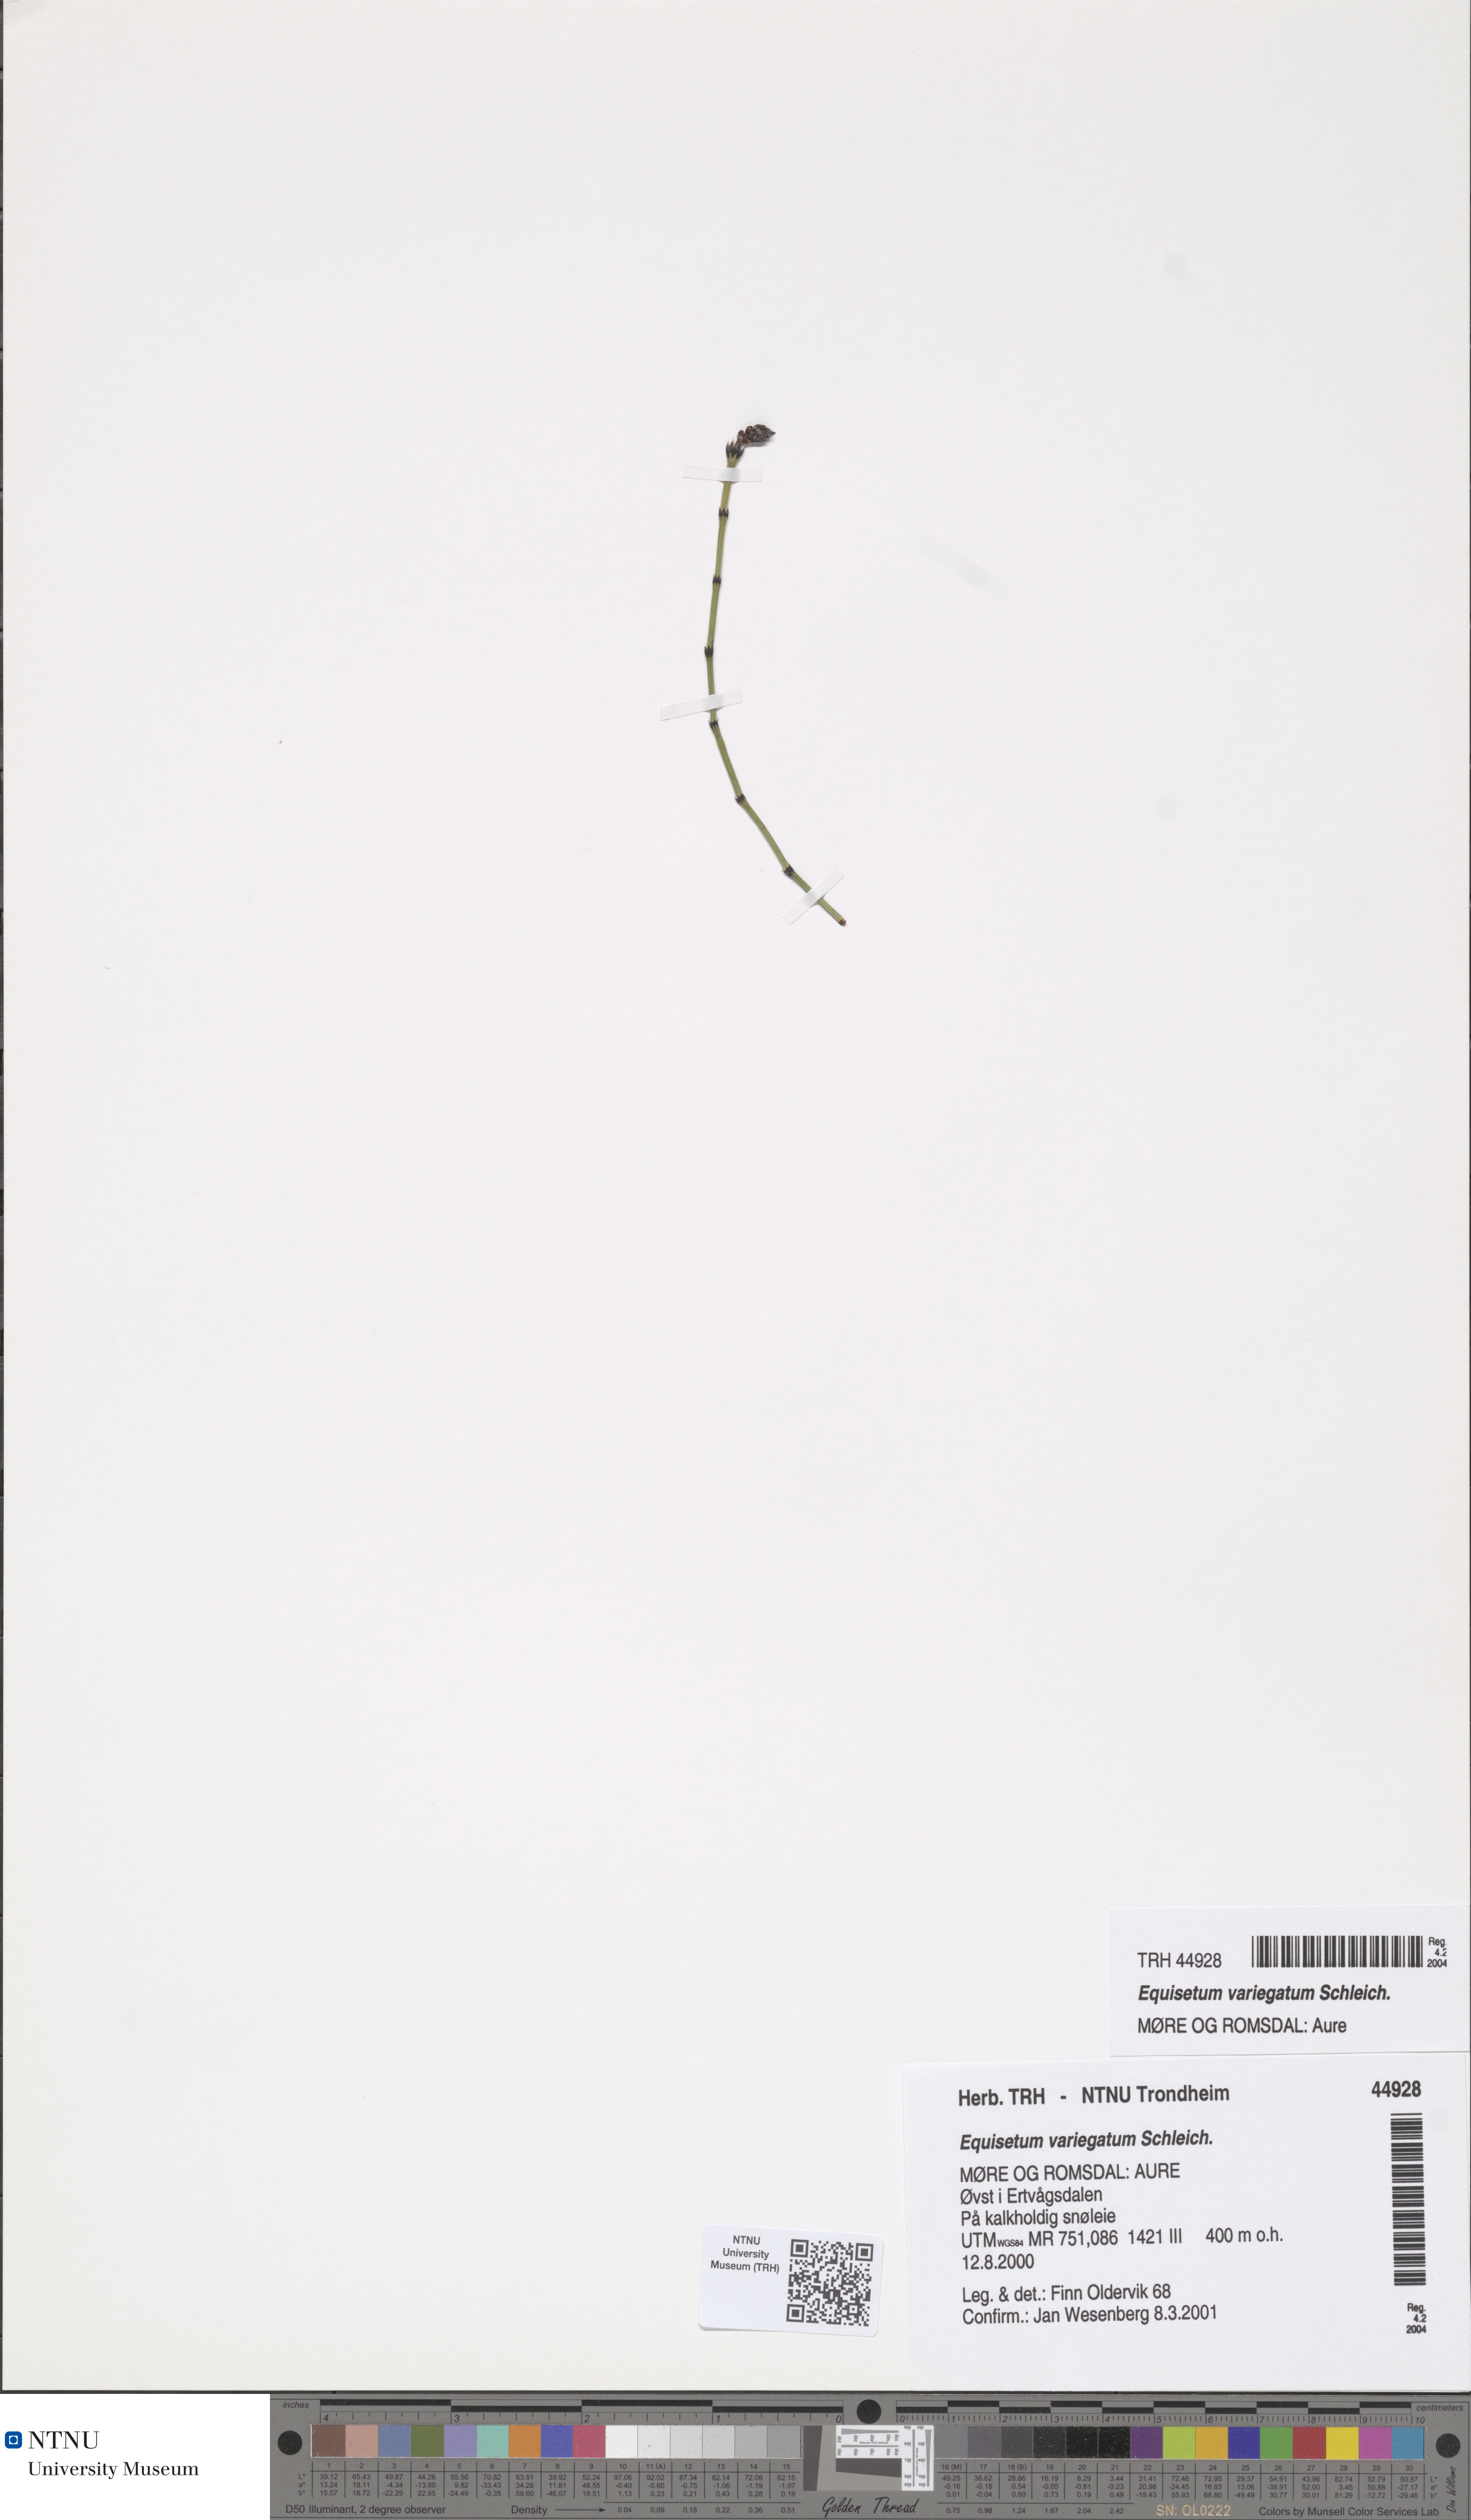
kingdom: Plantae
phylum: Tracheophyta
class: Polypodiopsida
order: Equisetales
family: Equisetaceae
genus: Equisetum
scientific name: Equisetum variegatum
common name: Variegated horsetail
